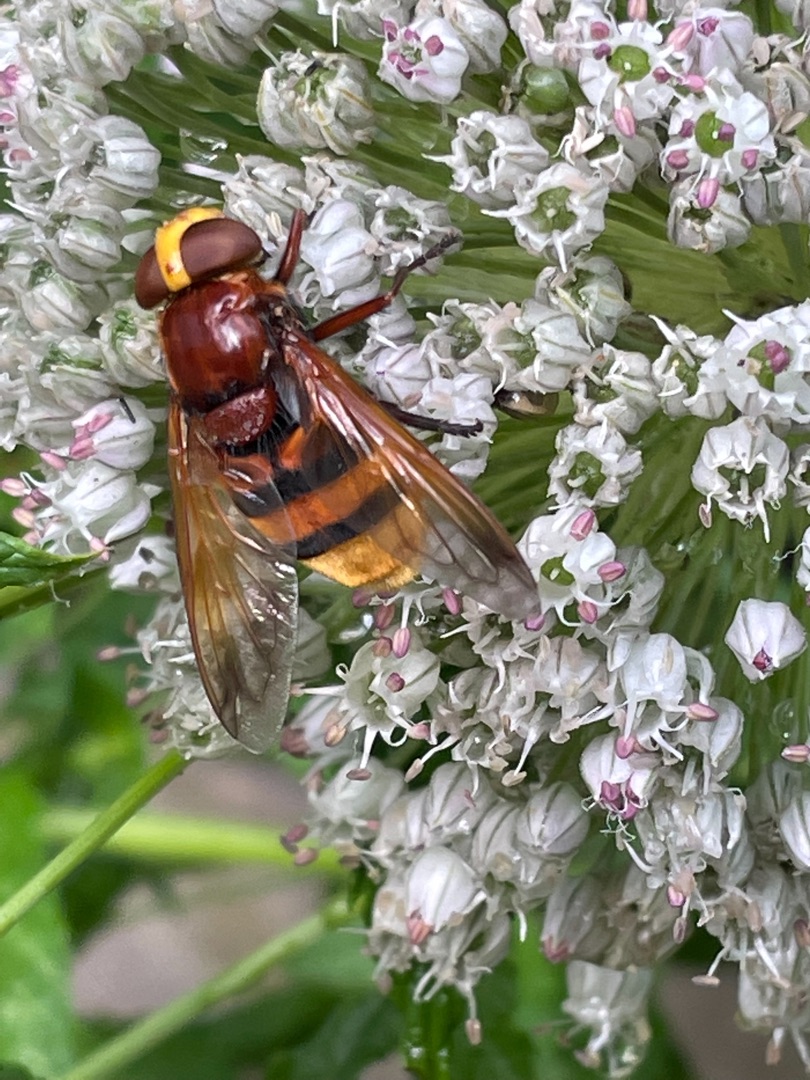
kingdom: Animalia
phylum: Arthropoda
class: Insecta
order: Diptera
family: Syrphidae
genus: Volucella
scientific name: Volucella zonaria
